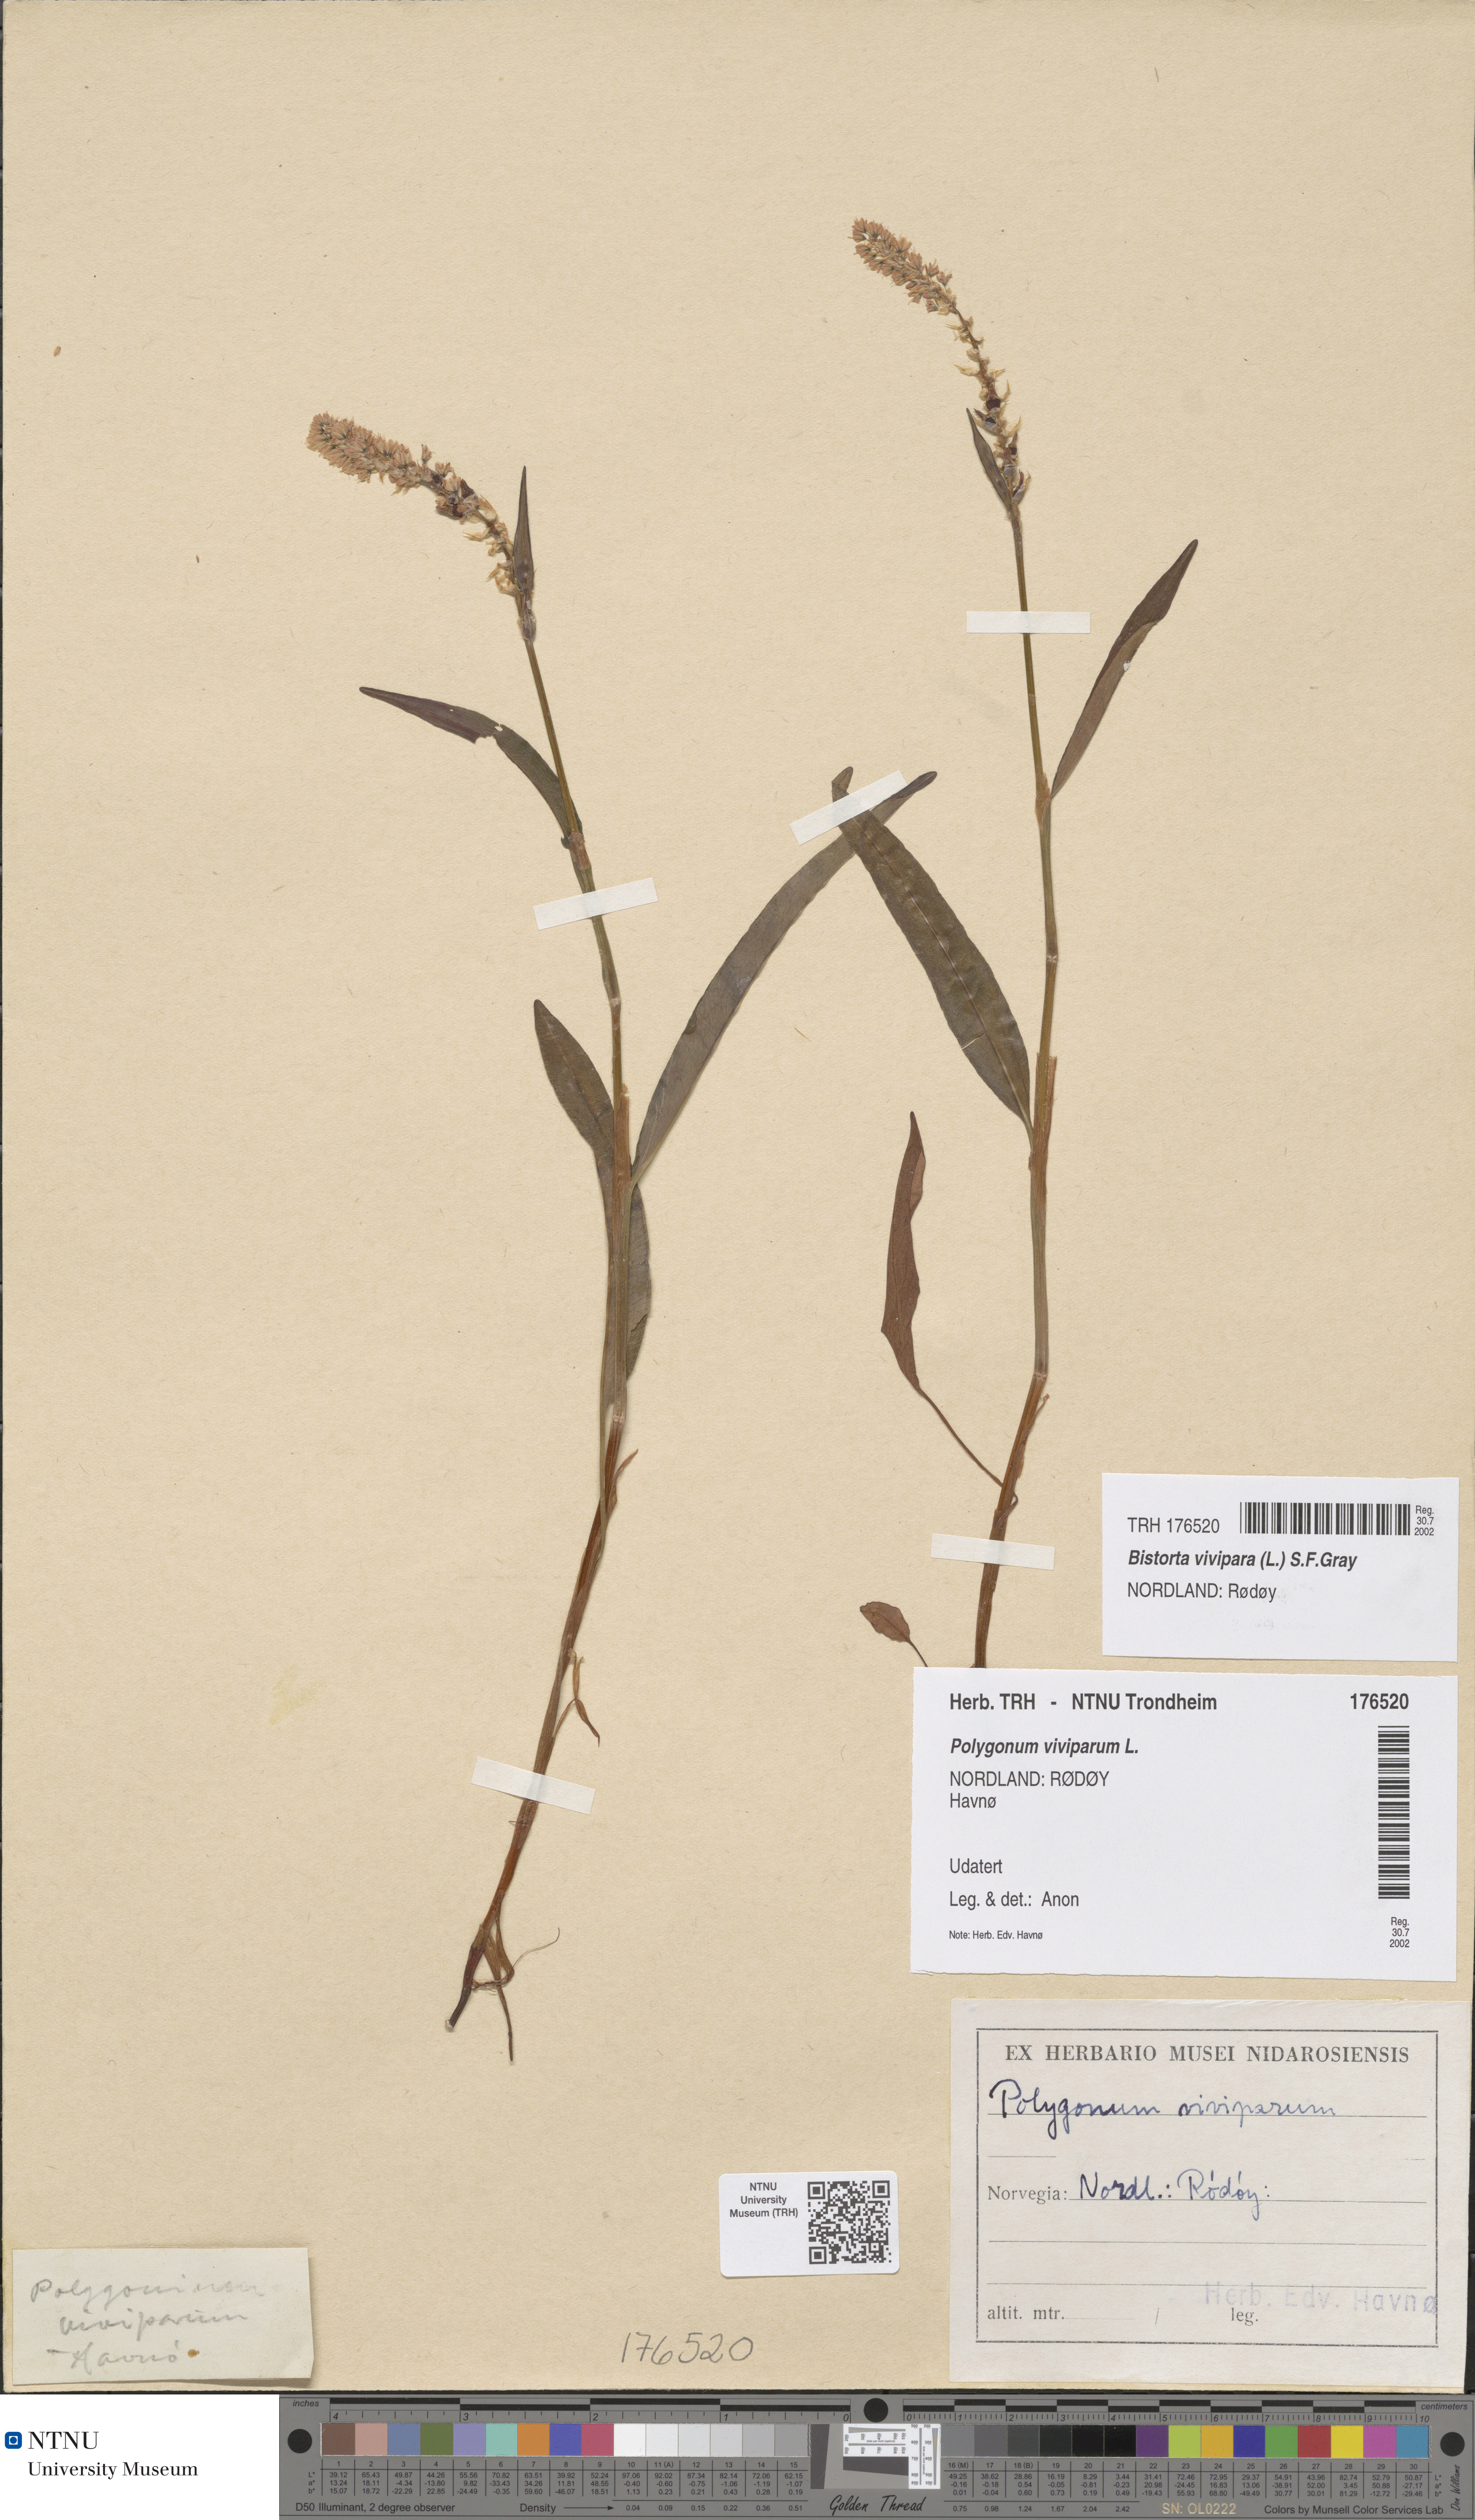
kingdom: Plantae
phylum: Tracheophyta
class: Magnoliopsida
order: Caryophyllales
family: Polygonaceae
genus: Bistorta
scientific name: Bistorta vivipara
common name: Alpine bistort
